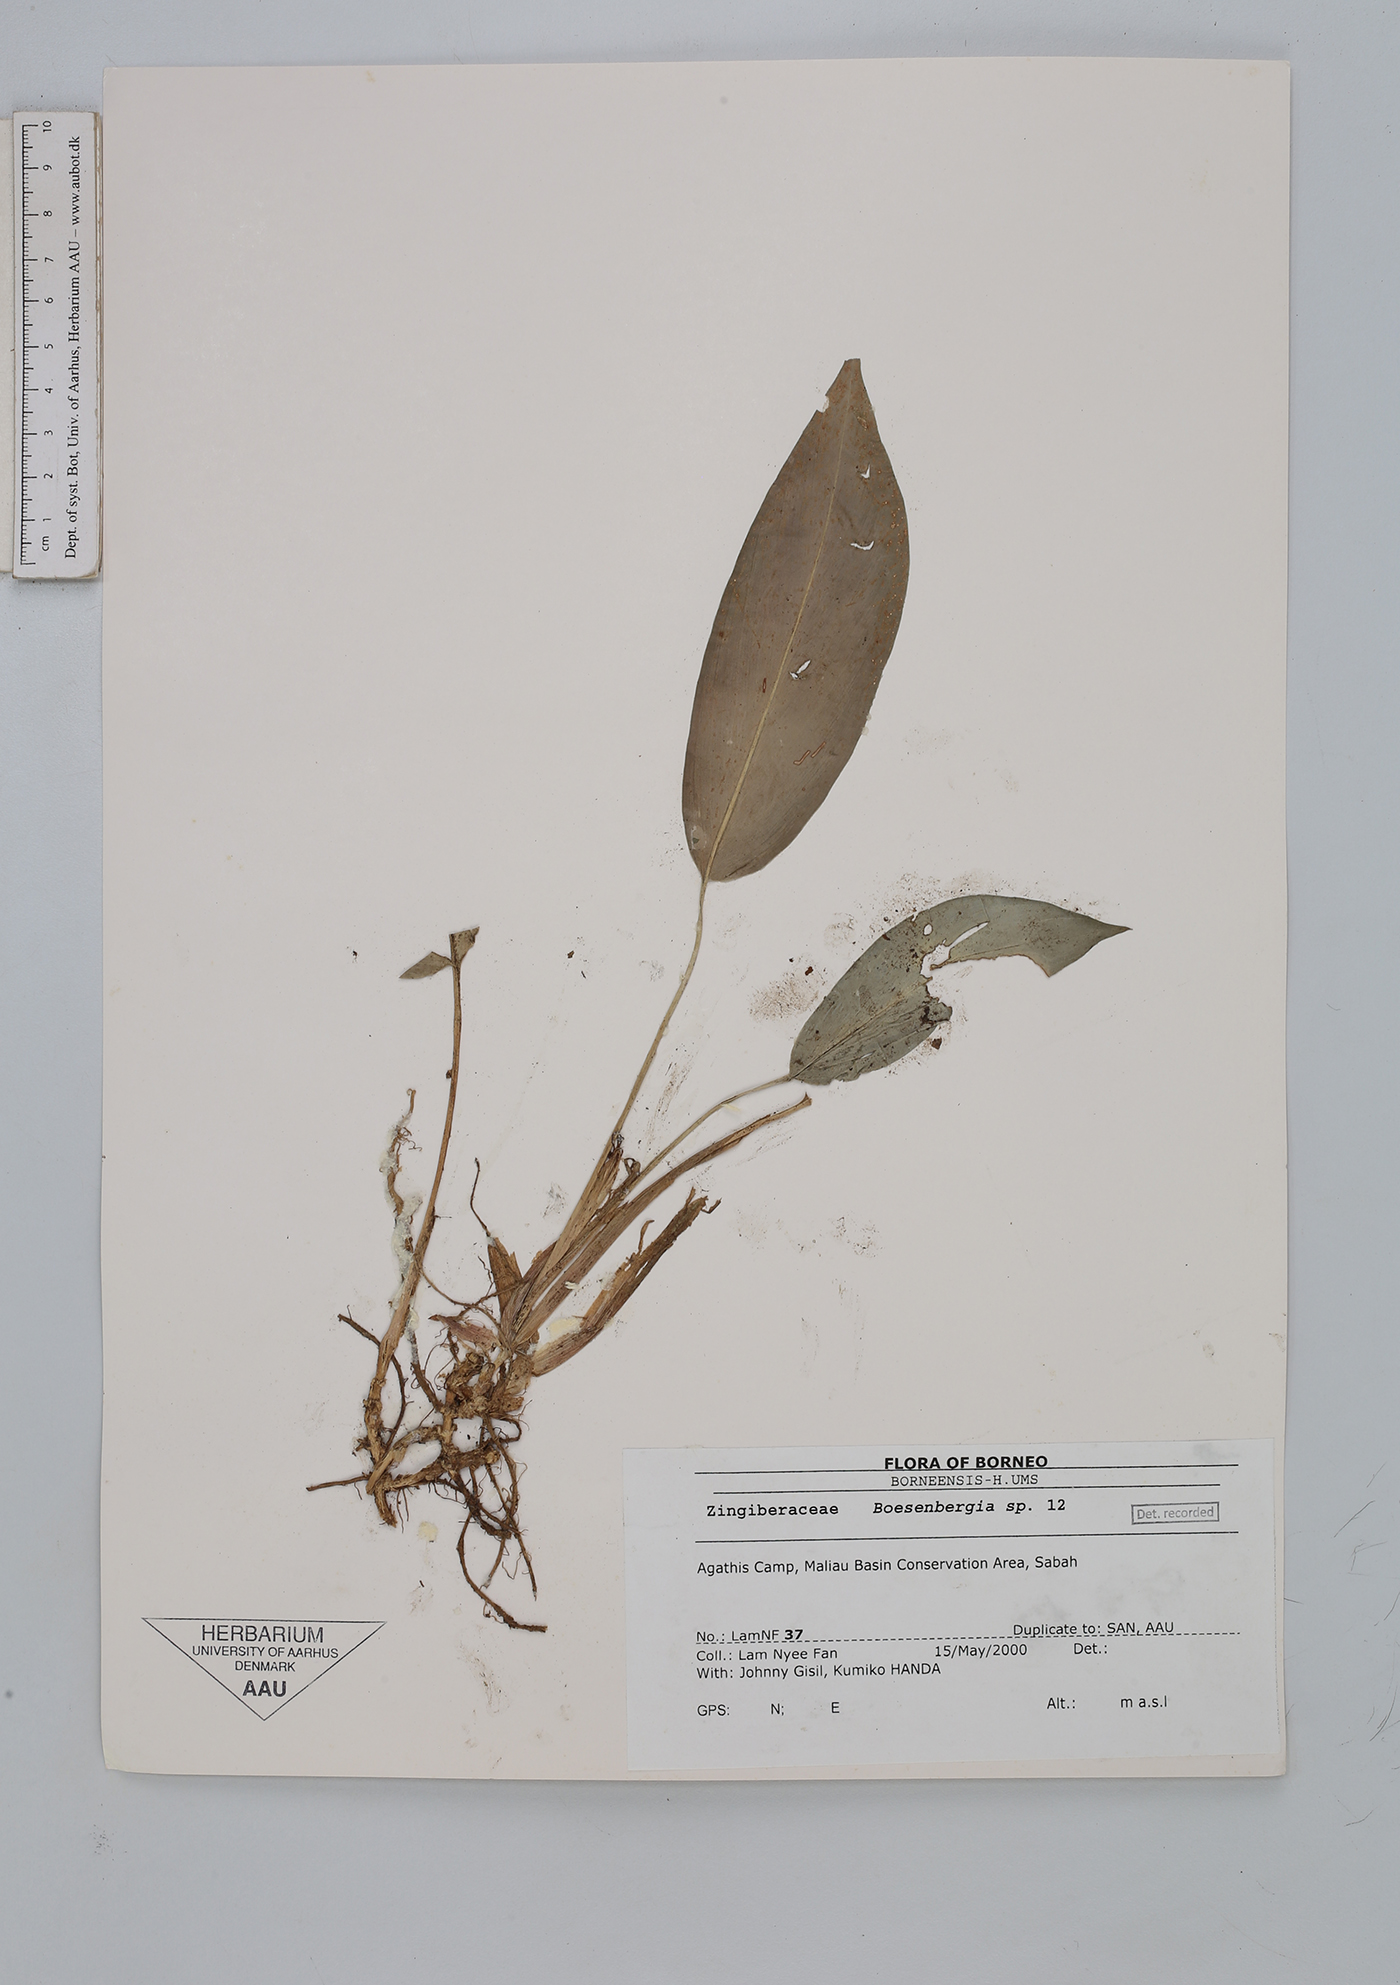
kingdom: Plantae
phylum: Tracheophyta
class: Liliopsida
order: Zingiberales
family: Zingiberaceae
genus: Boesenbergia
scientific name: Boesenbergia
